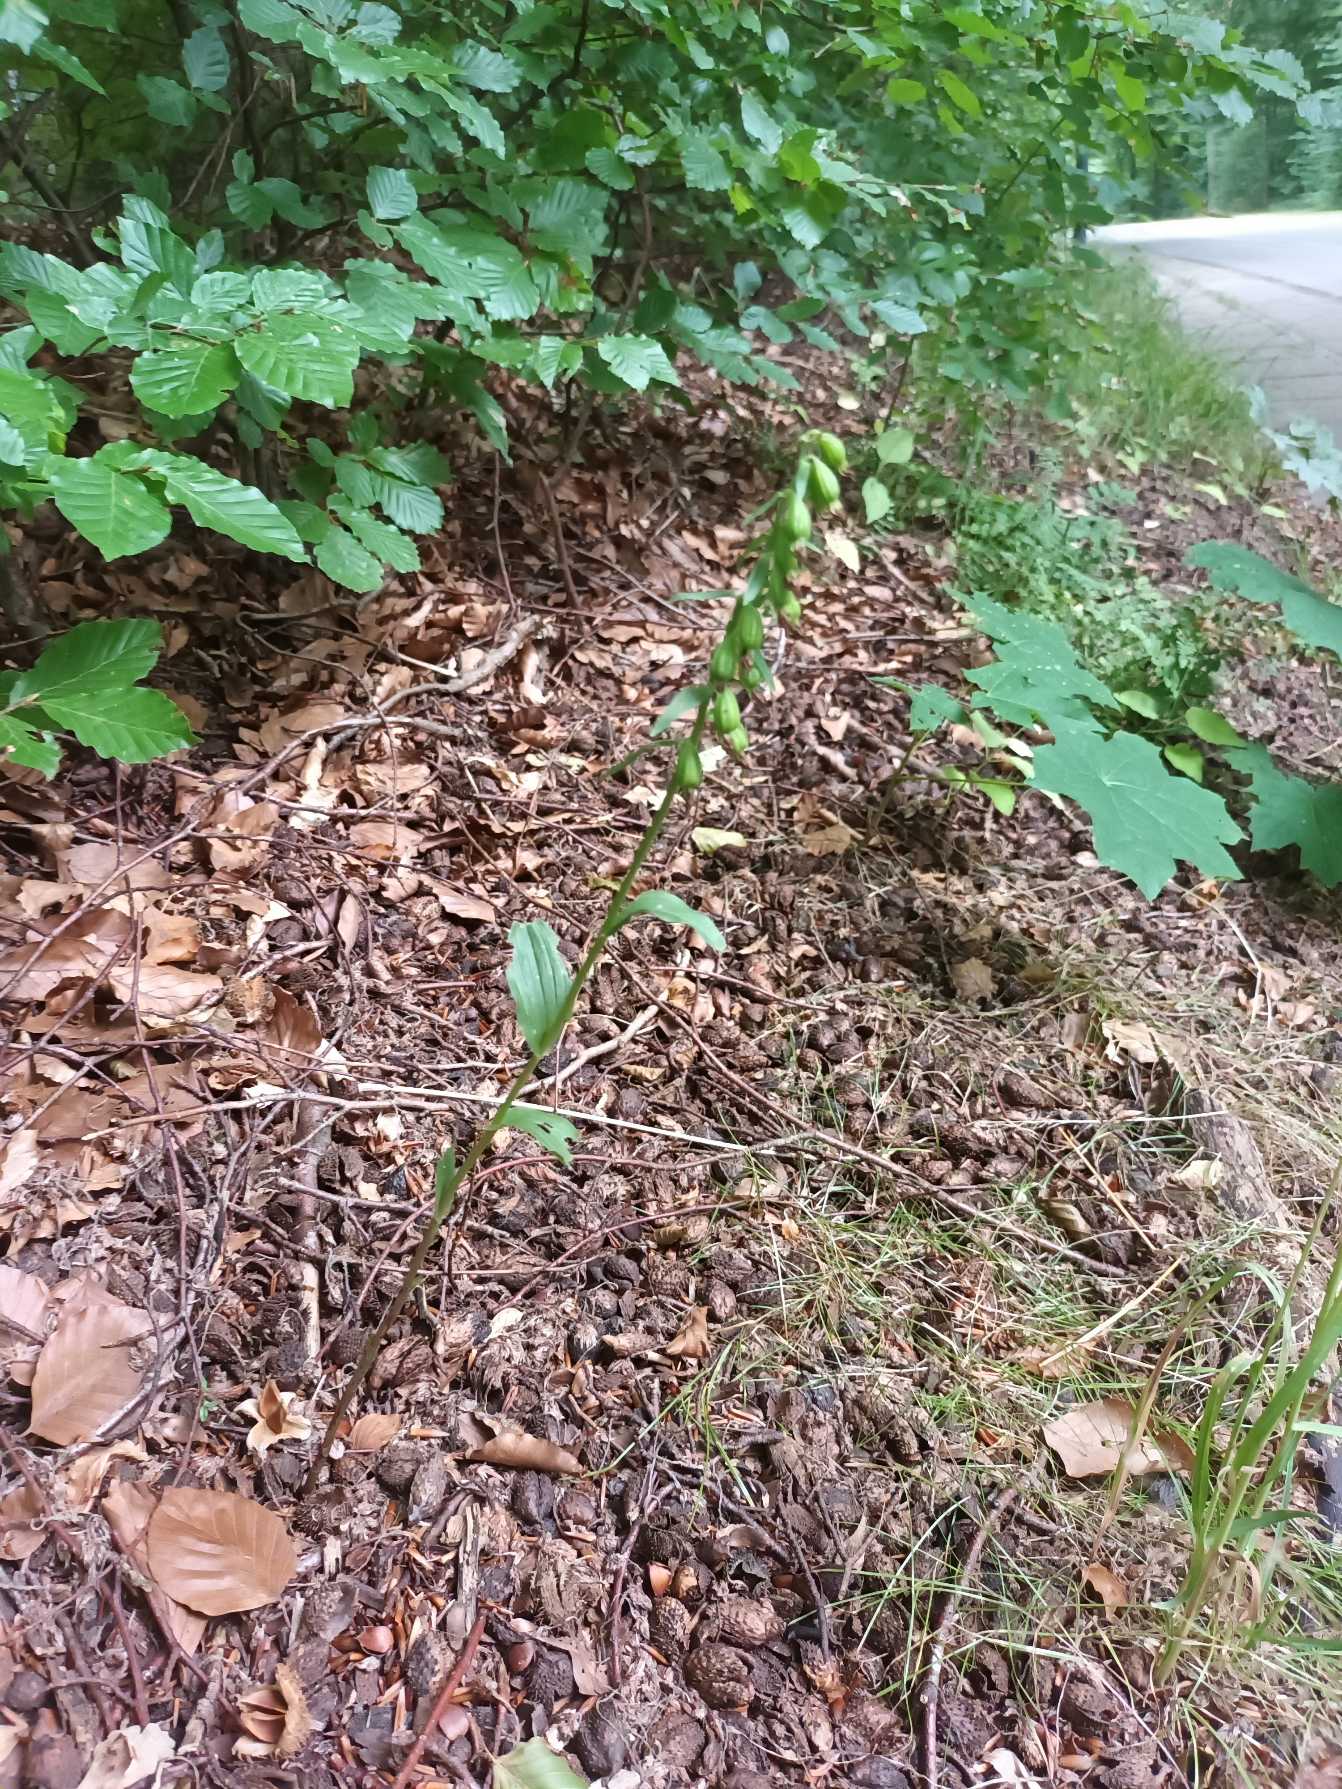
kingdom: Plantae
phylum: Tracheophyta
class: Liliopsida
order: Asparagales
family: Orchidaceae
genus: Epipactis
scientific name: Epipactis phyllanthes
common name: Nikkende hullæbe
